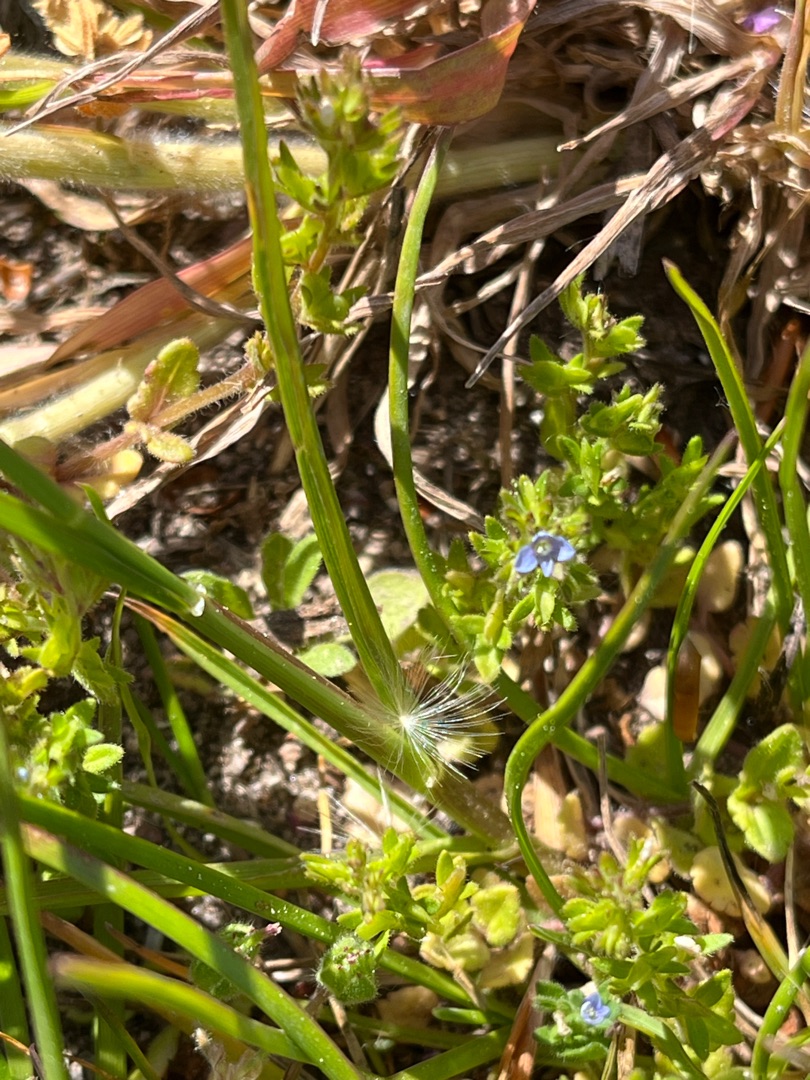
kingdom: Plantae
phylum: Tracheophyta
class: Magnoliopsida
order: Lamiales
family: Plantaginaceae
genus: Veronica
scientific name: Veronica arvensis
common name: Mark-ærenpris
